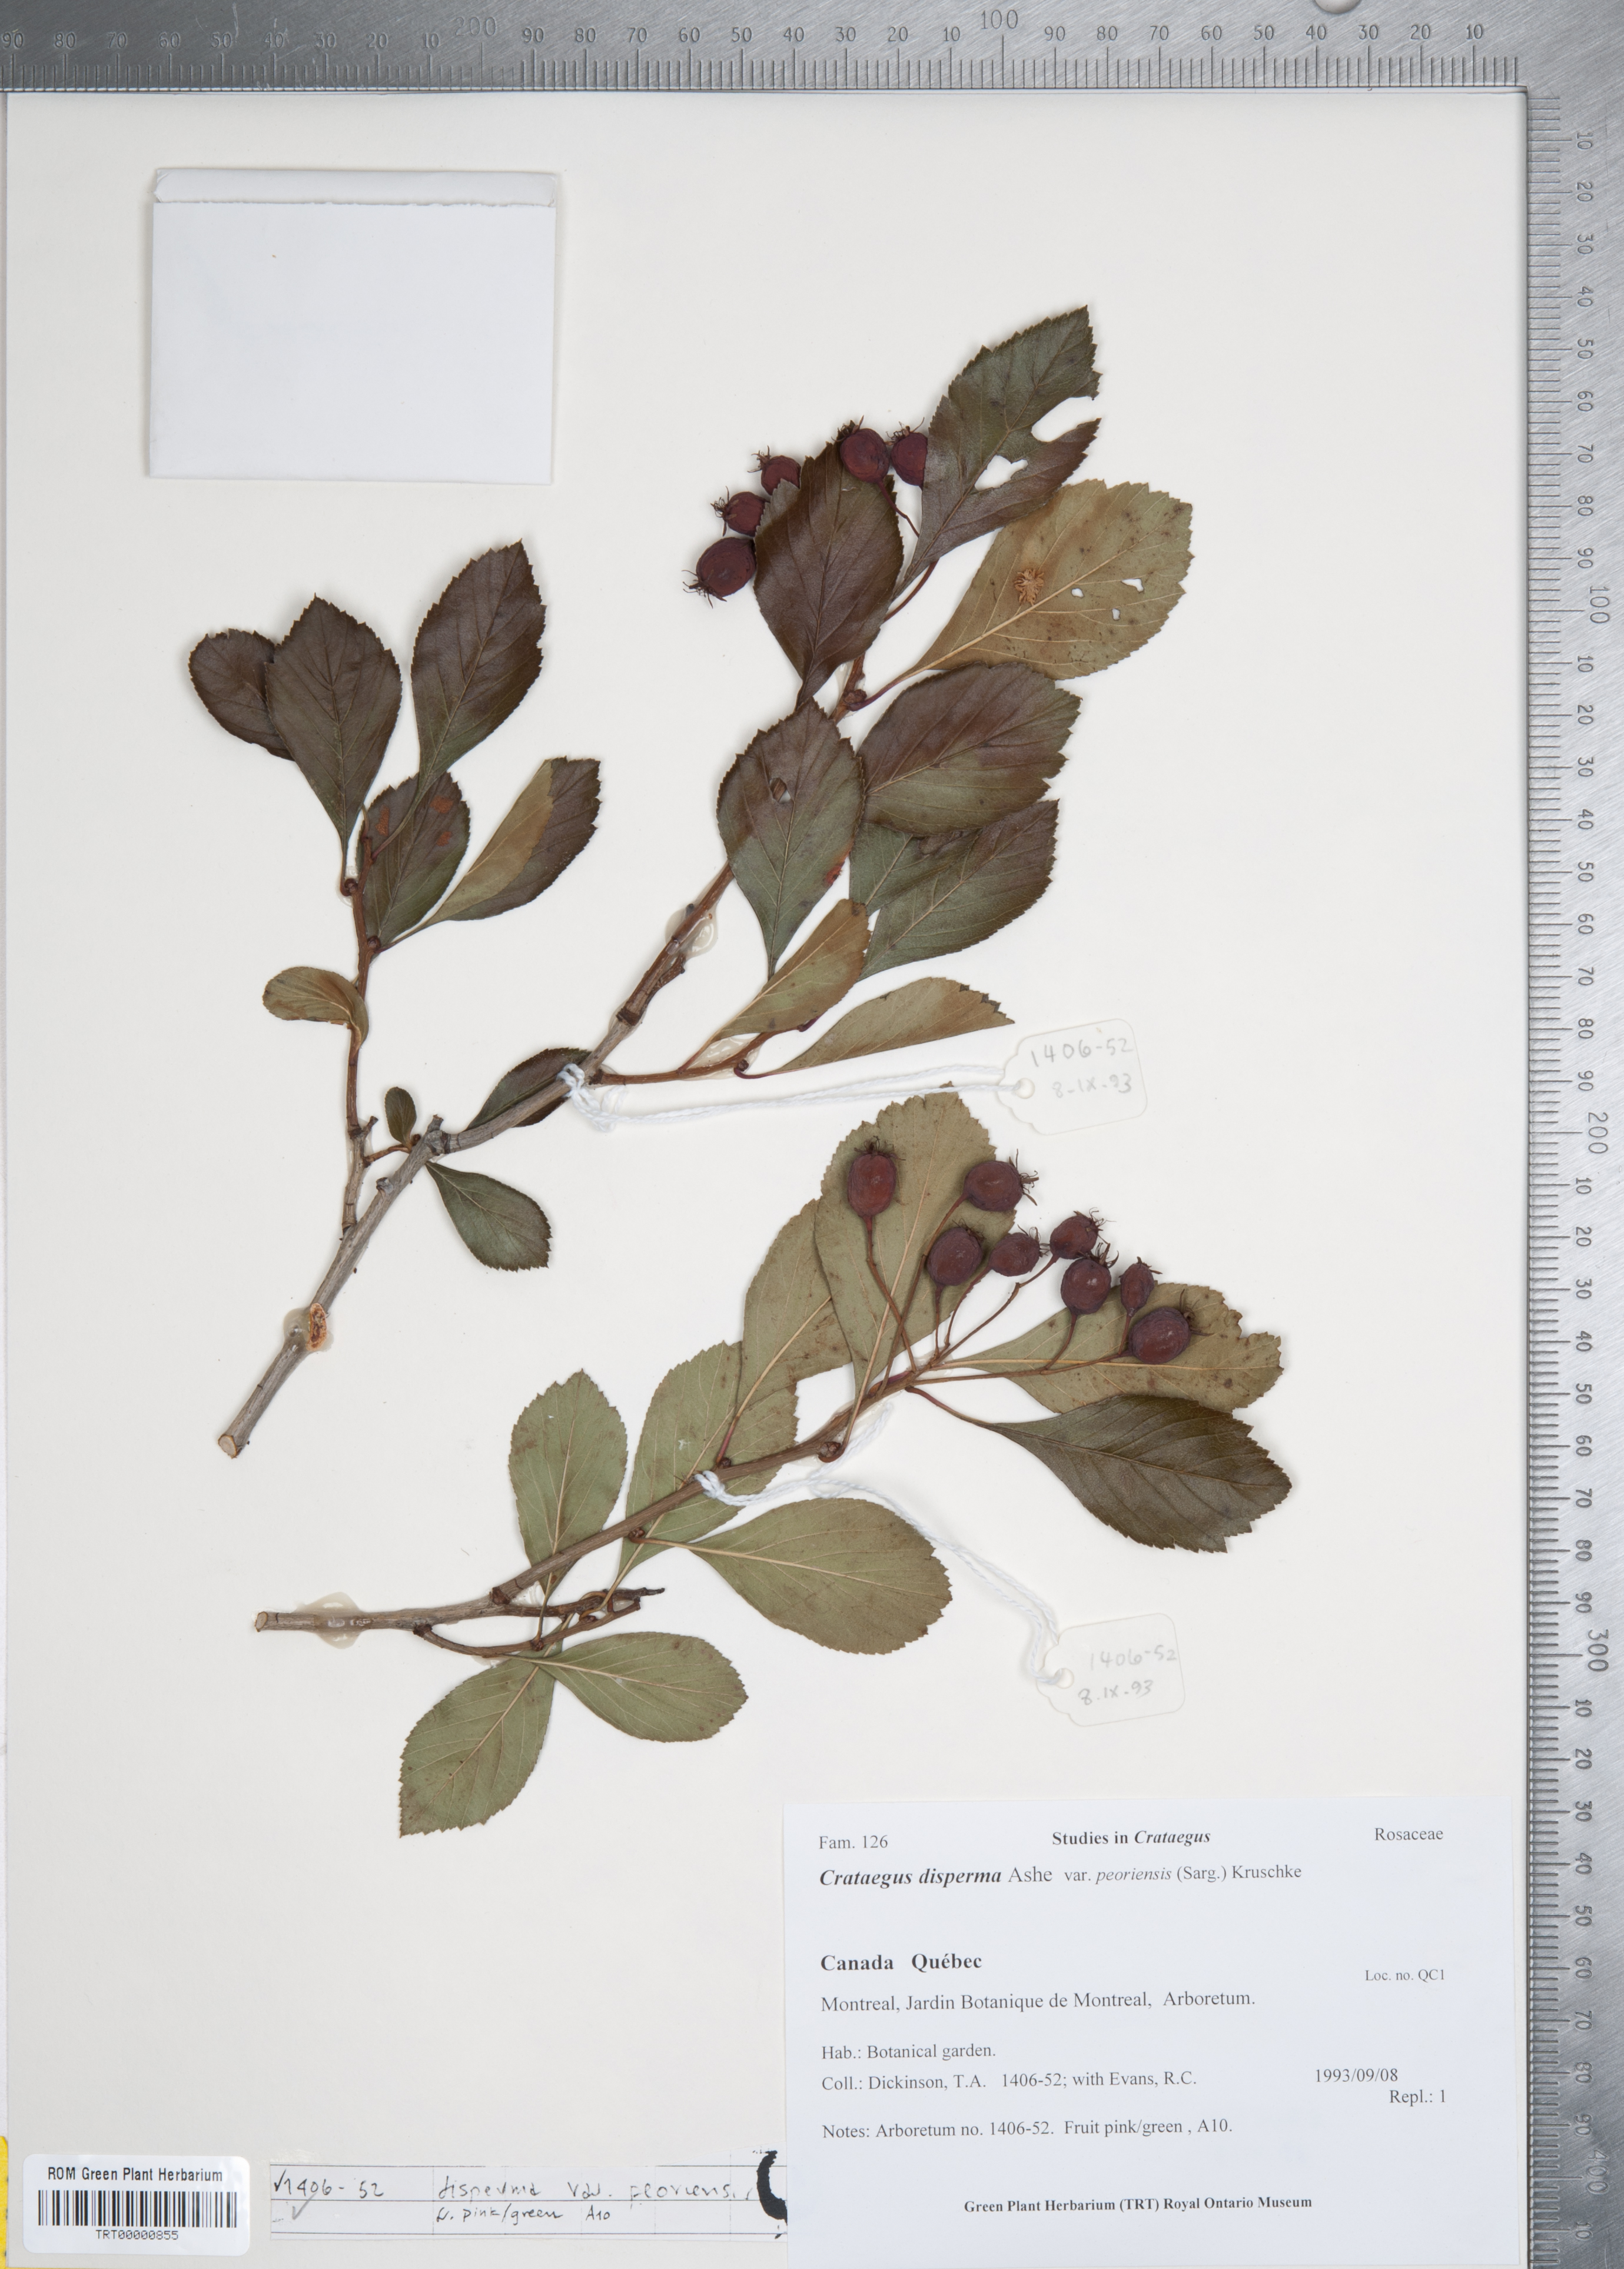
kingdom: Plantae
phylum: Tracheophyta
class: Magnoliopsida
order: Rosales
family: Rosaceae
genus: Crataegus
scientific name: Crataegus disperma
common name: Spreading hawthorn
